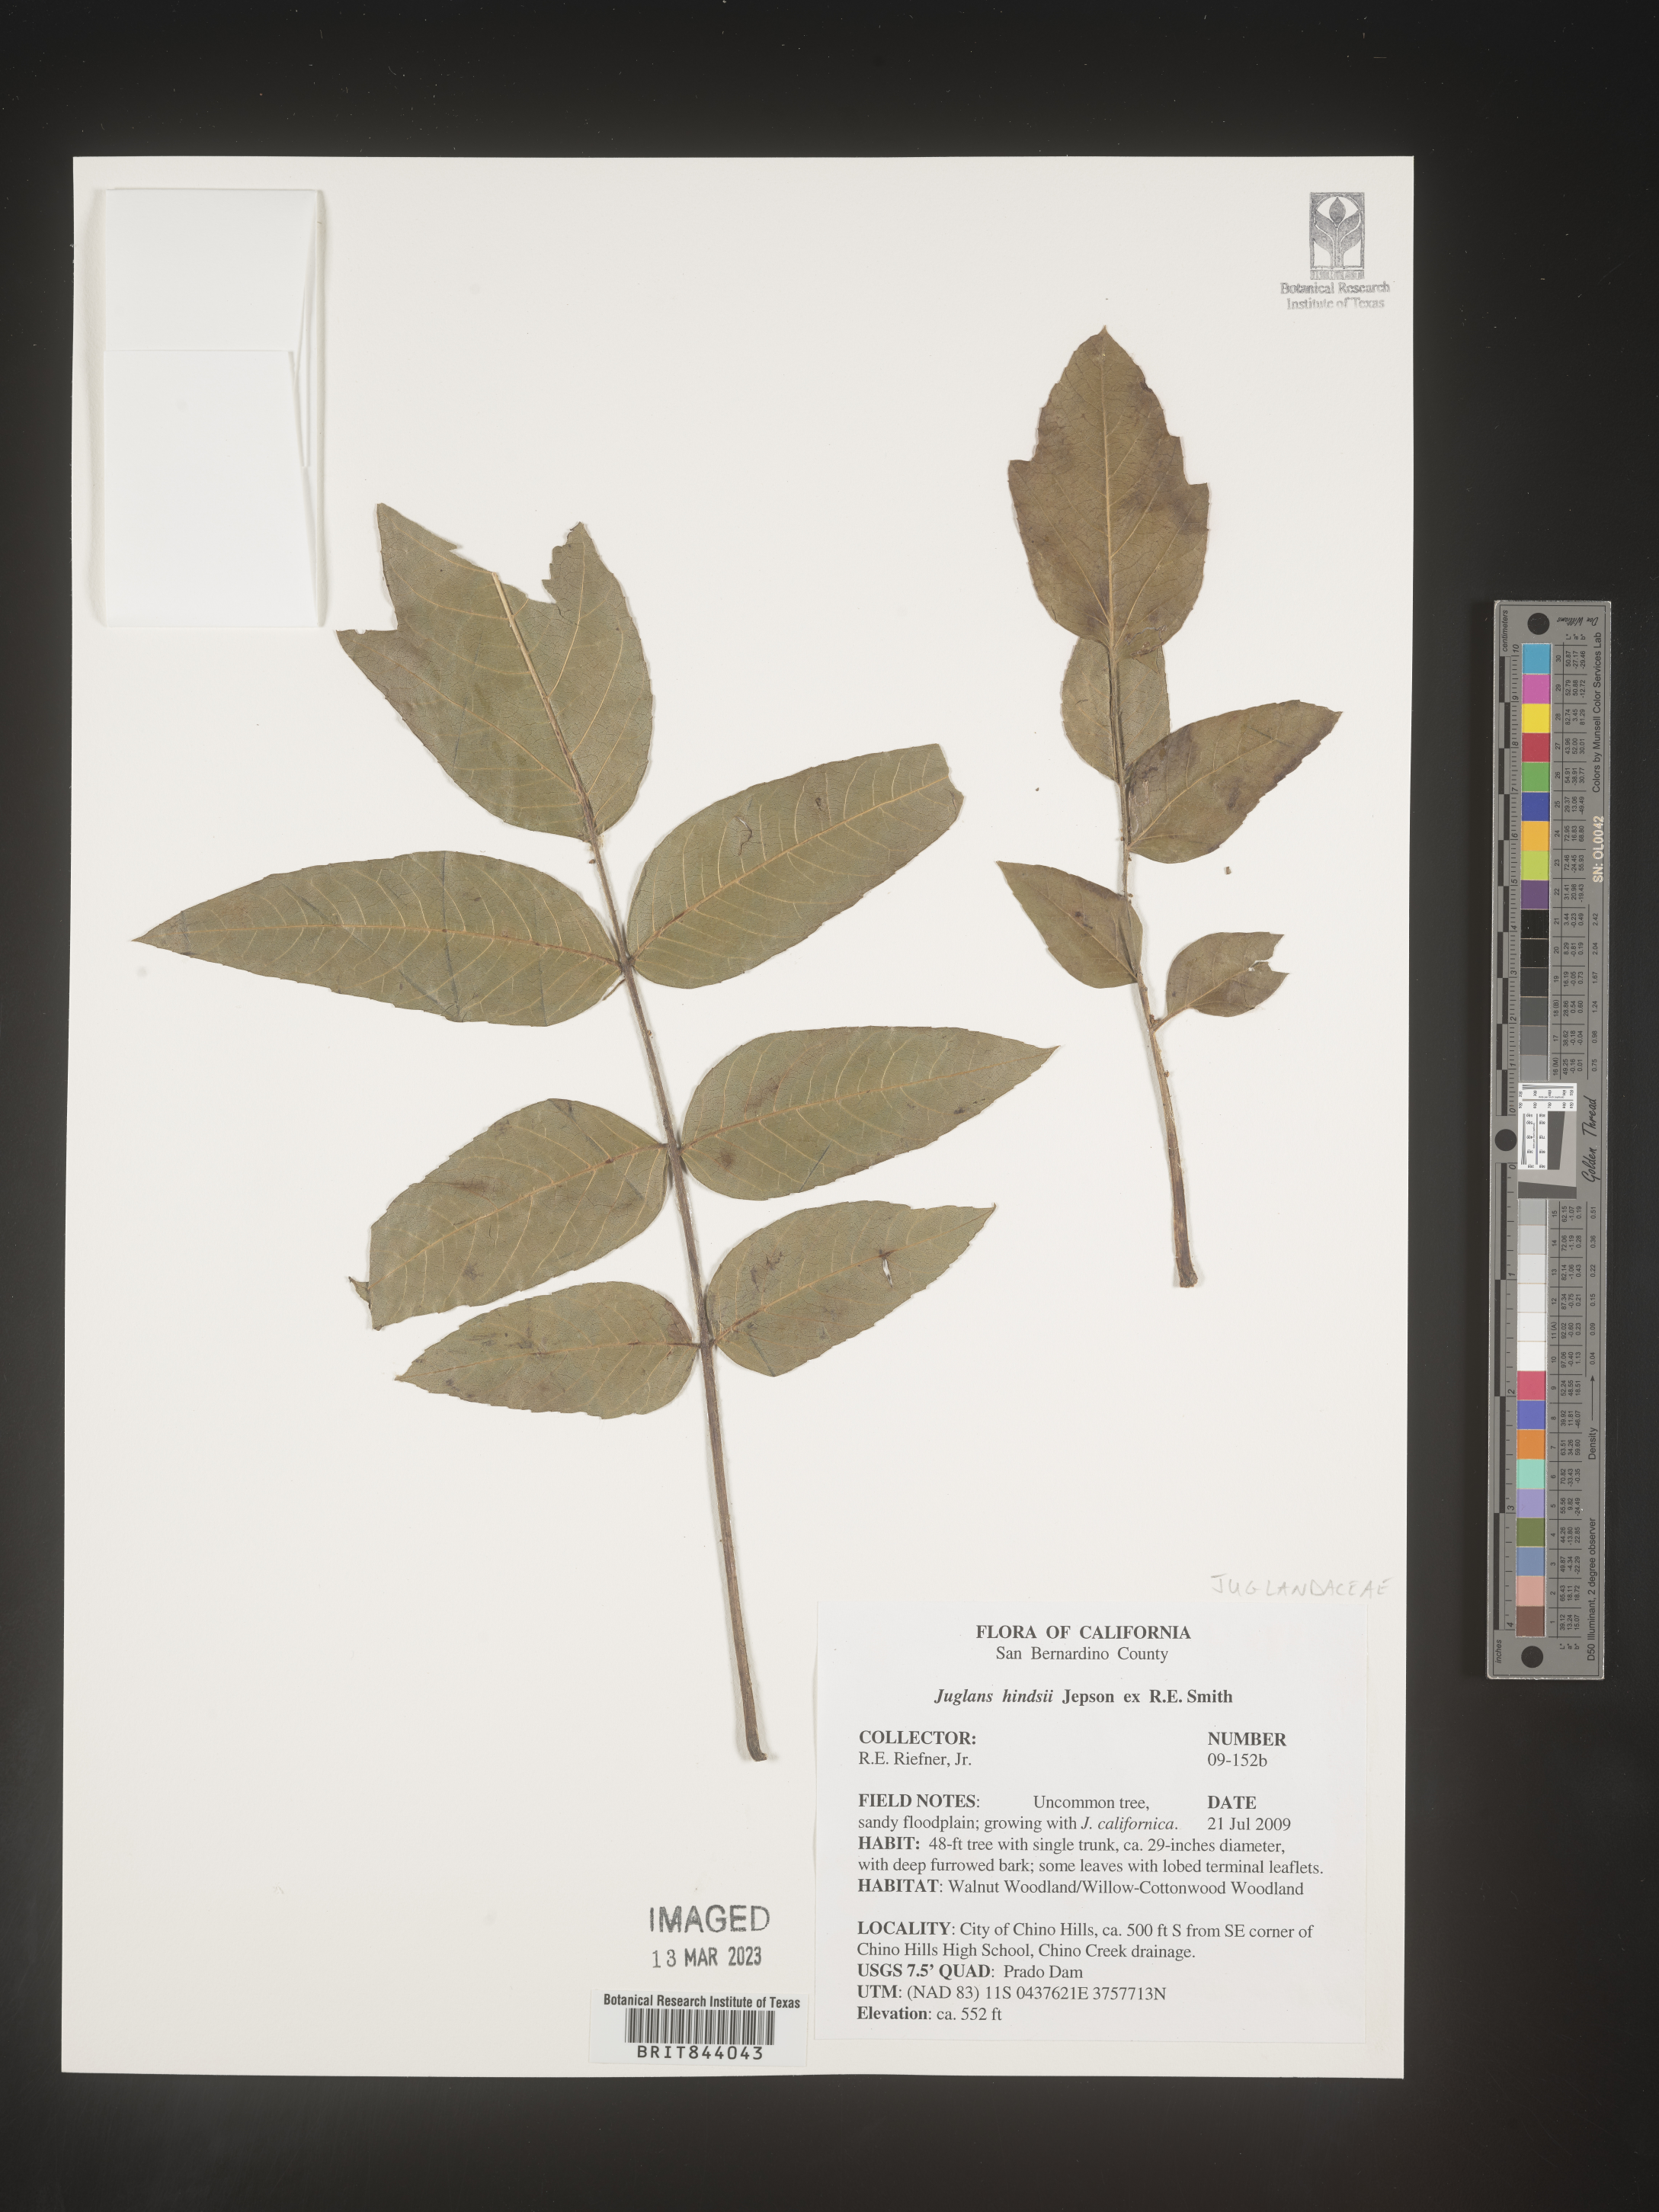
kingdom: Plantae
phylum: Tracheophyta
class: Magnoliopsida
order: Fagales
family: Juglandaceae
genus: Juglans
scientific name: Juglans hindsii
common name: Northern california black walnut
